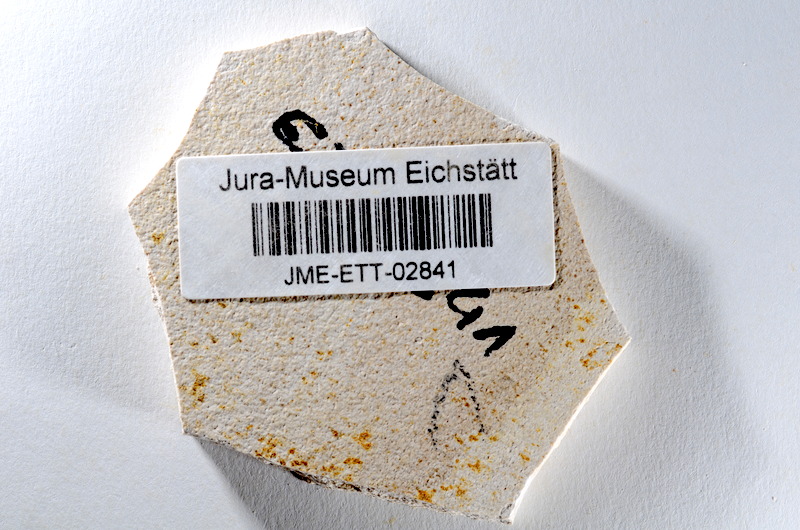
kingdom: Animalia
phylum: Chordata
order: Salmoniformes
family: Orthogonikleithridae
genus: Orthogonikleithrus
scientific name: Orthogonikleithrus hoelli
